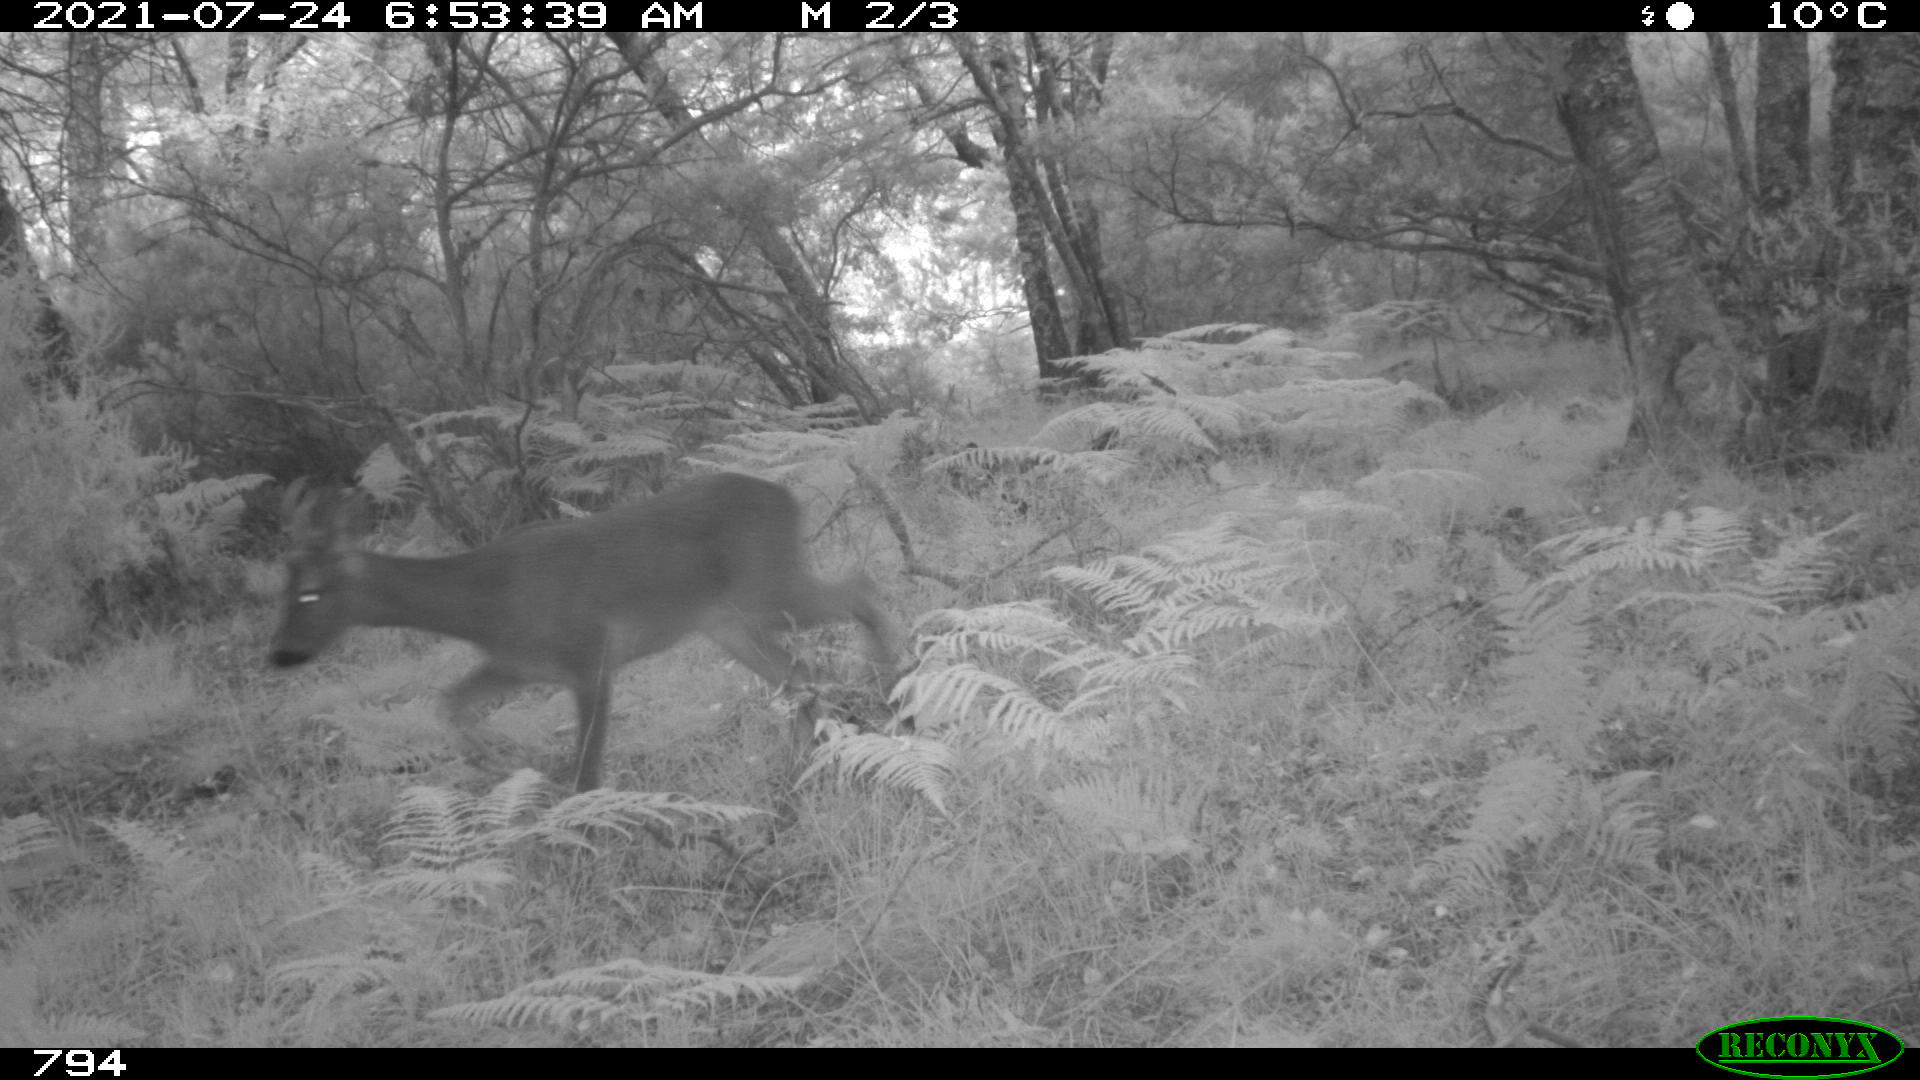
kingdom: Animalia
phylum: Chordata
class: Mammalia
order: Artiodactyla
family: Cervidae
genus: Capreolus
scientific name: Capreolus capreolus
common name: Western roe deer
